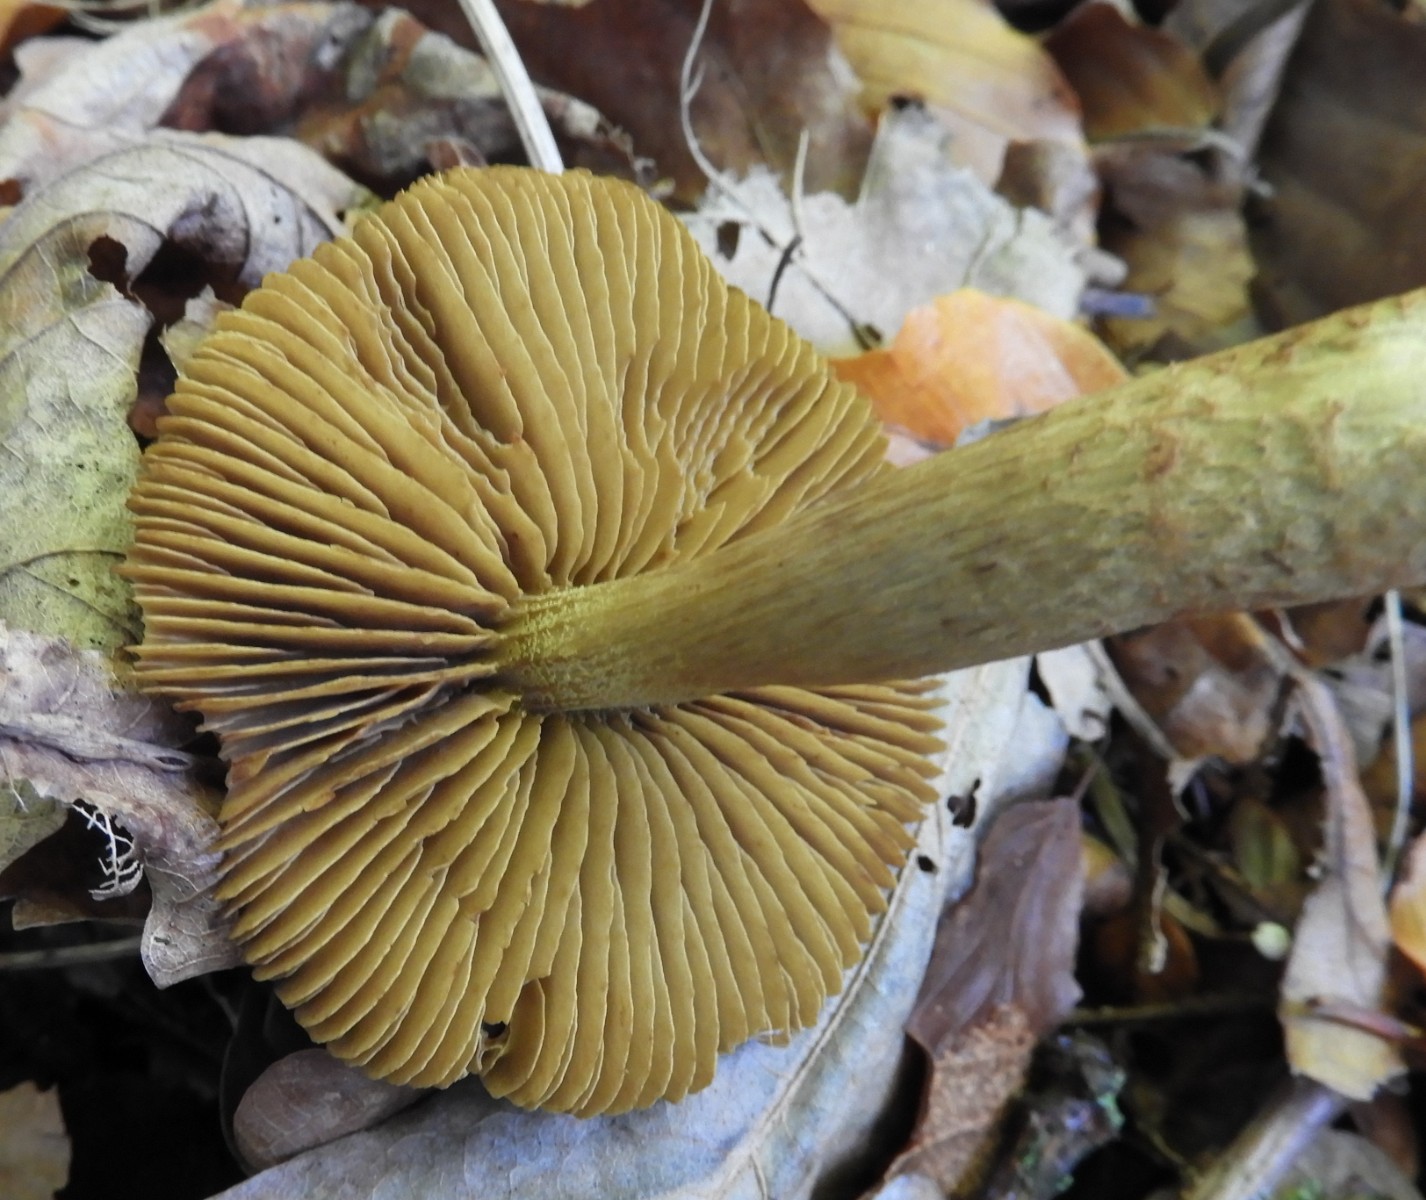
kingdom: Fungi
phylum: Basidiomycota
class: Agaricomycetes
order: Agaricales
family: Cortinariaceae
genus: Cortinarius
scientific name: Cortinarius olivaceofuscus
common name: olivenbrun slørhat
